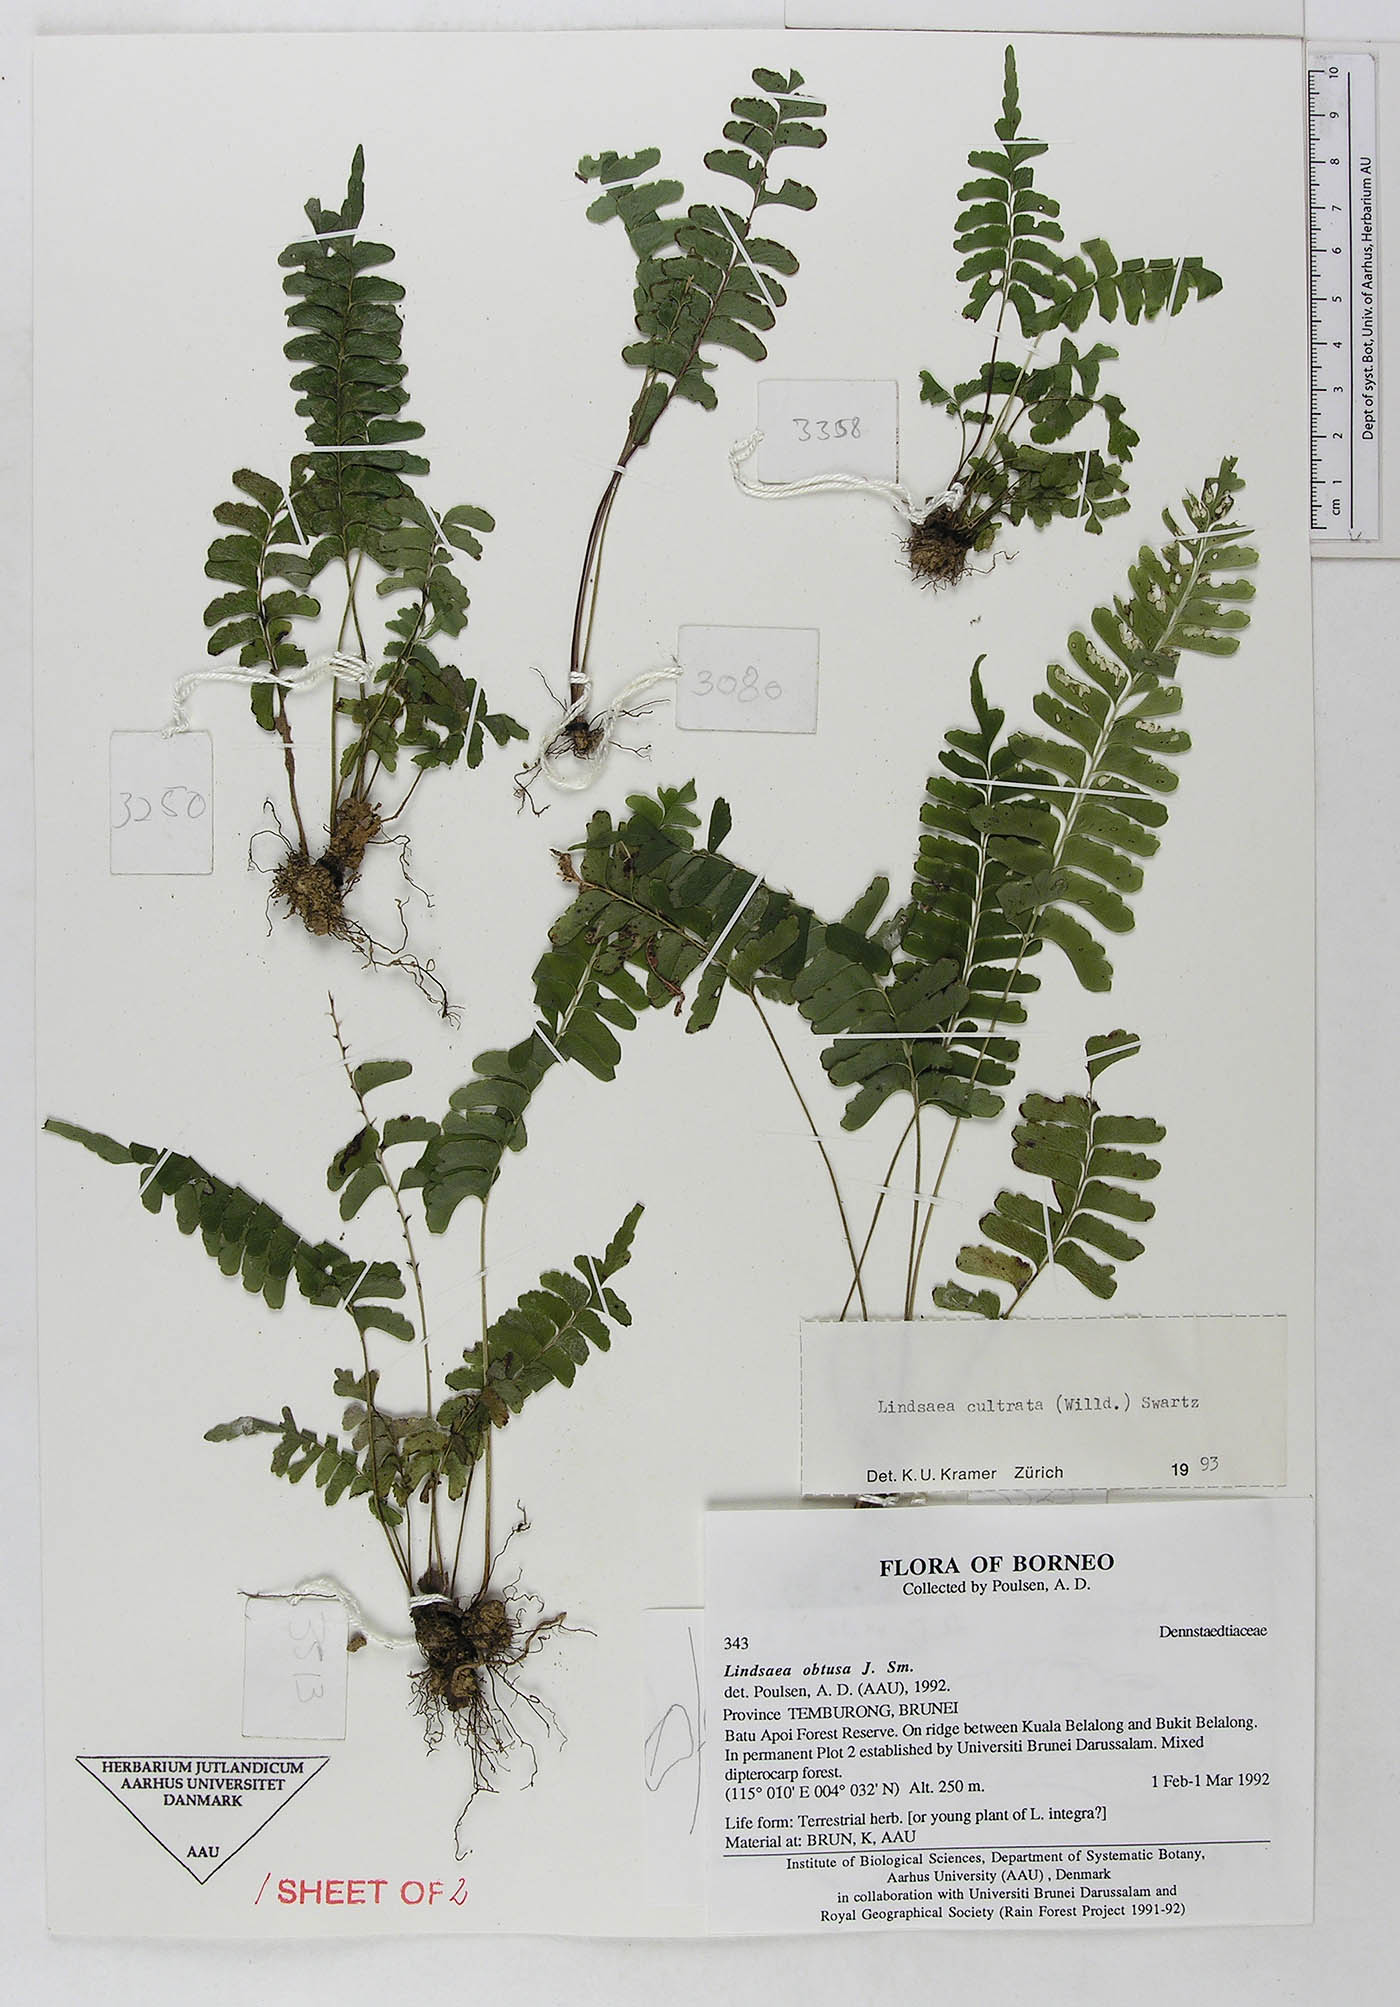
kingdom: Plantae
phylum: Tracheophyta
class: Polypodiopsida
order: Polypodiales
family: Lindsaeaceae
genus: Lindsaea
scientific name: Lindsaea cultrata
